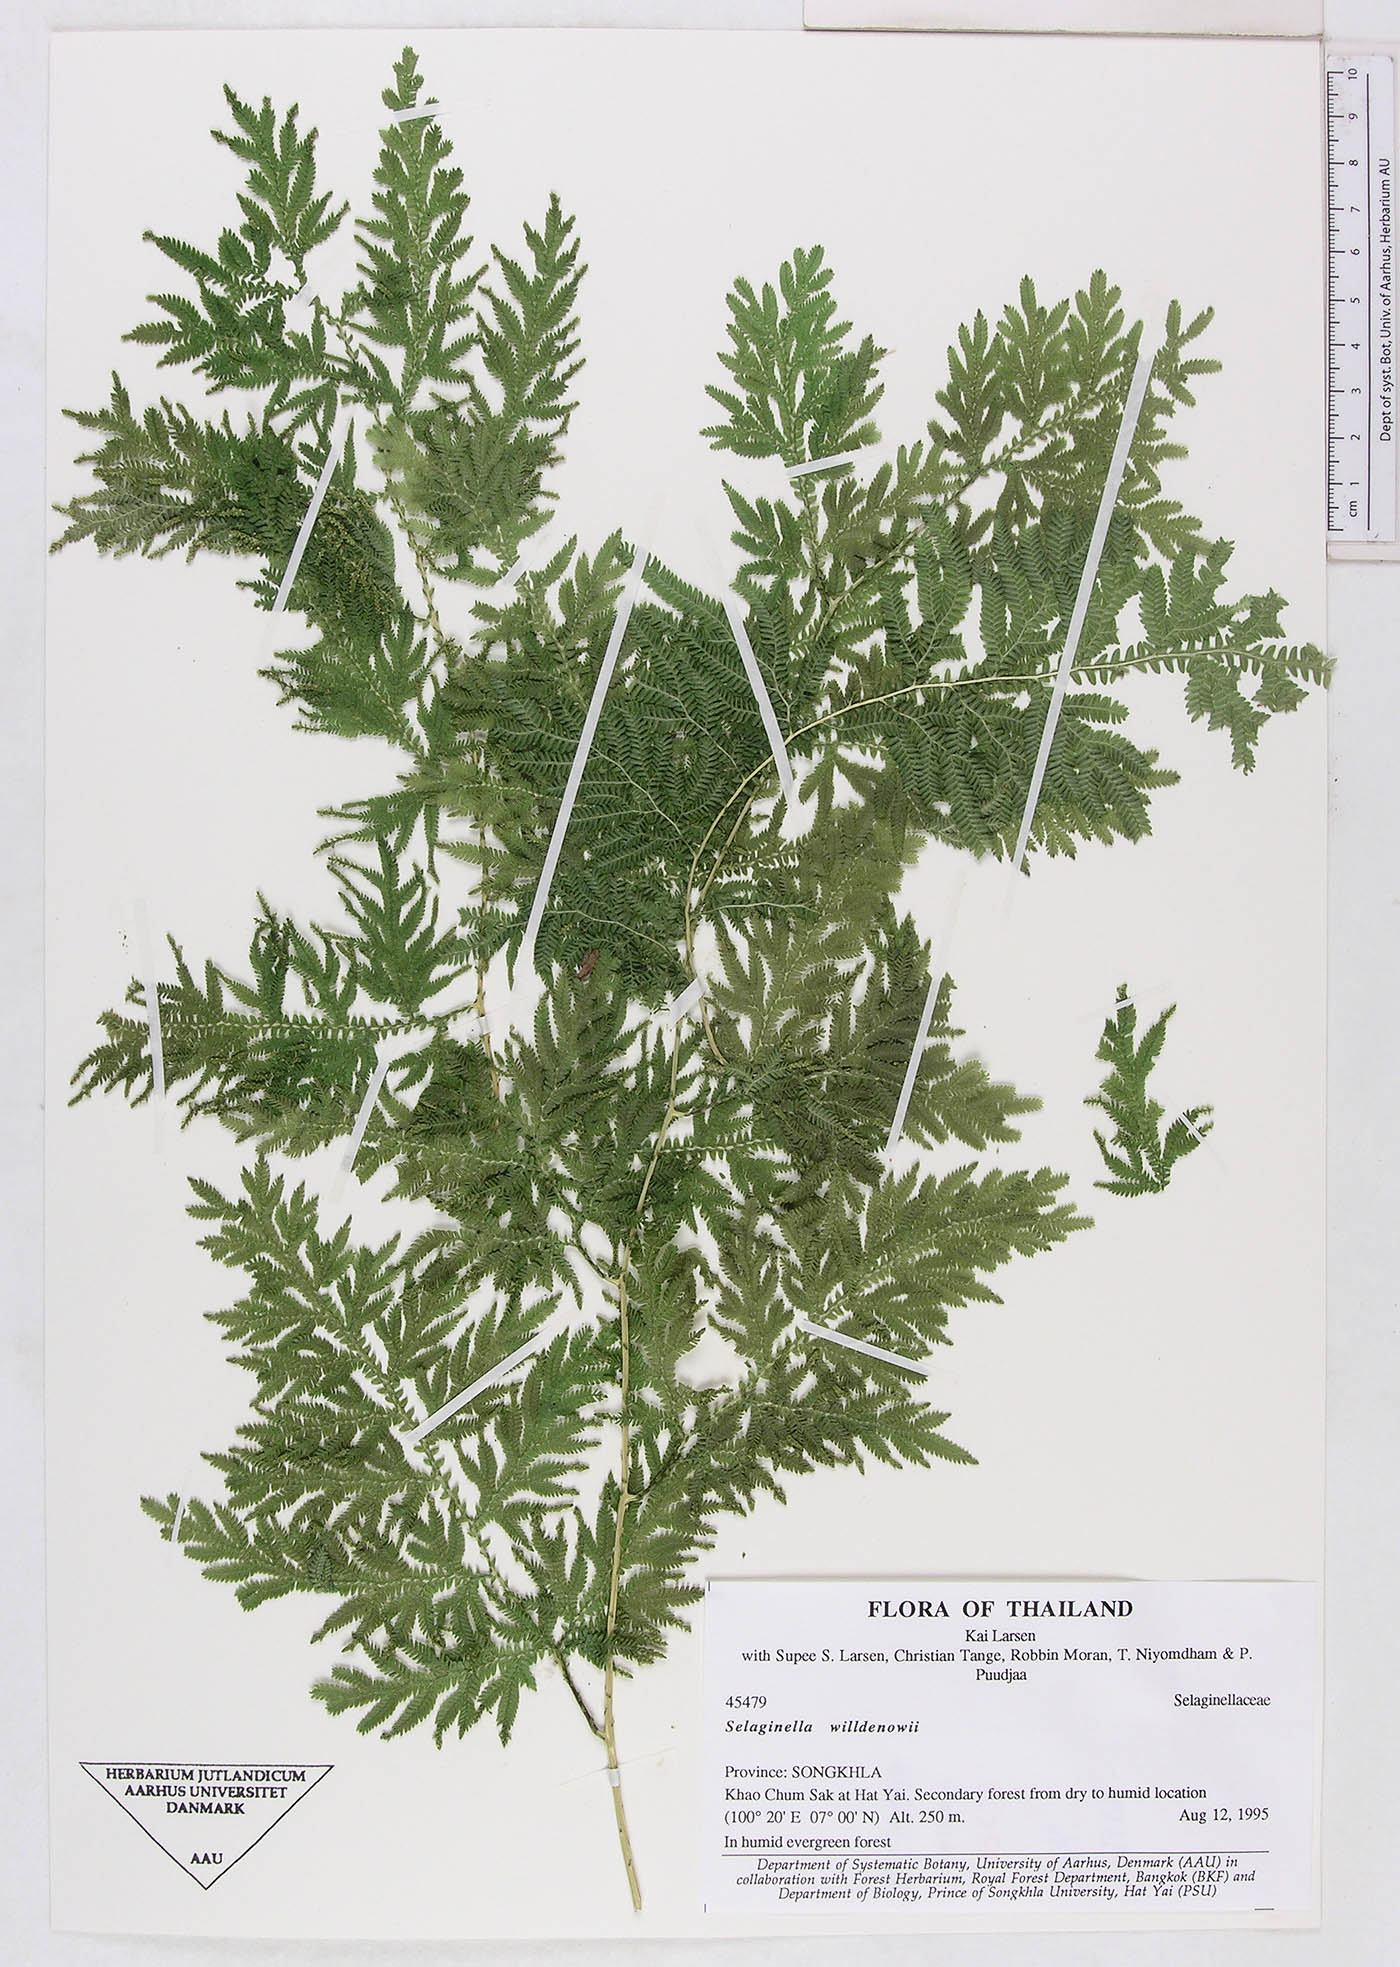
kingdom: Plantae
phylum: Tracheophyta
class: Lycopodiopsida
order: Selaginellales
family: Selaginellaceae
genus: Selaginella
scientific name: Selaginella willdenowii
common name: Willdenow's spikemoss
